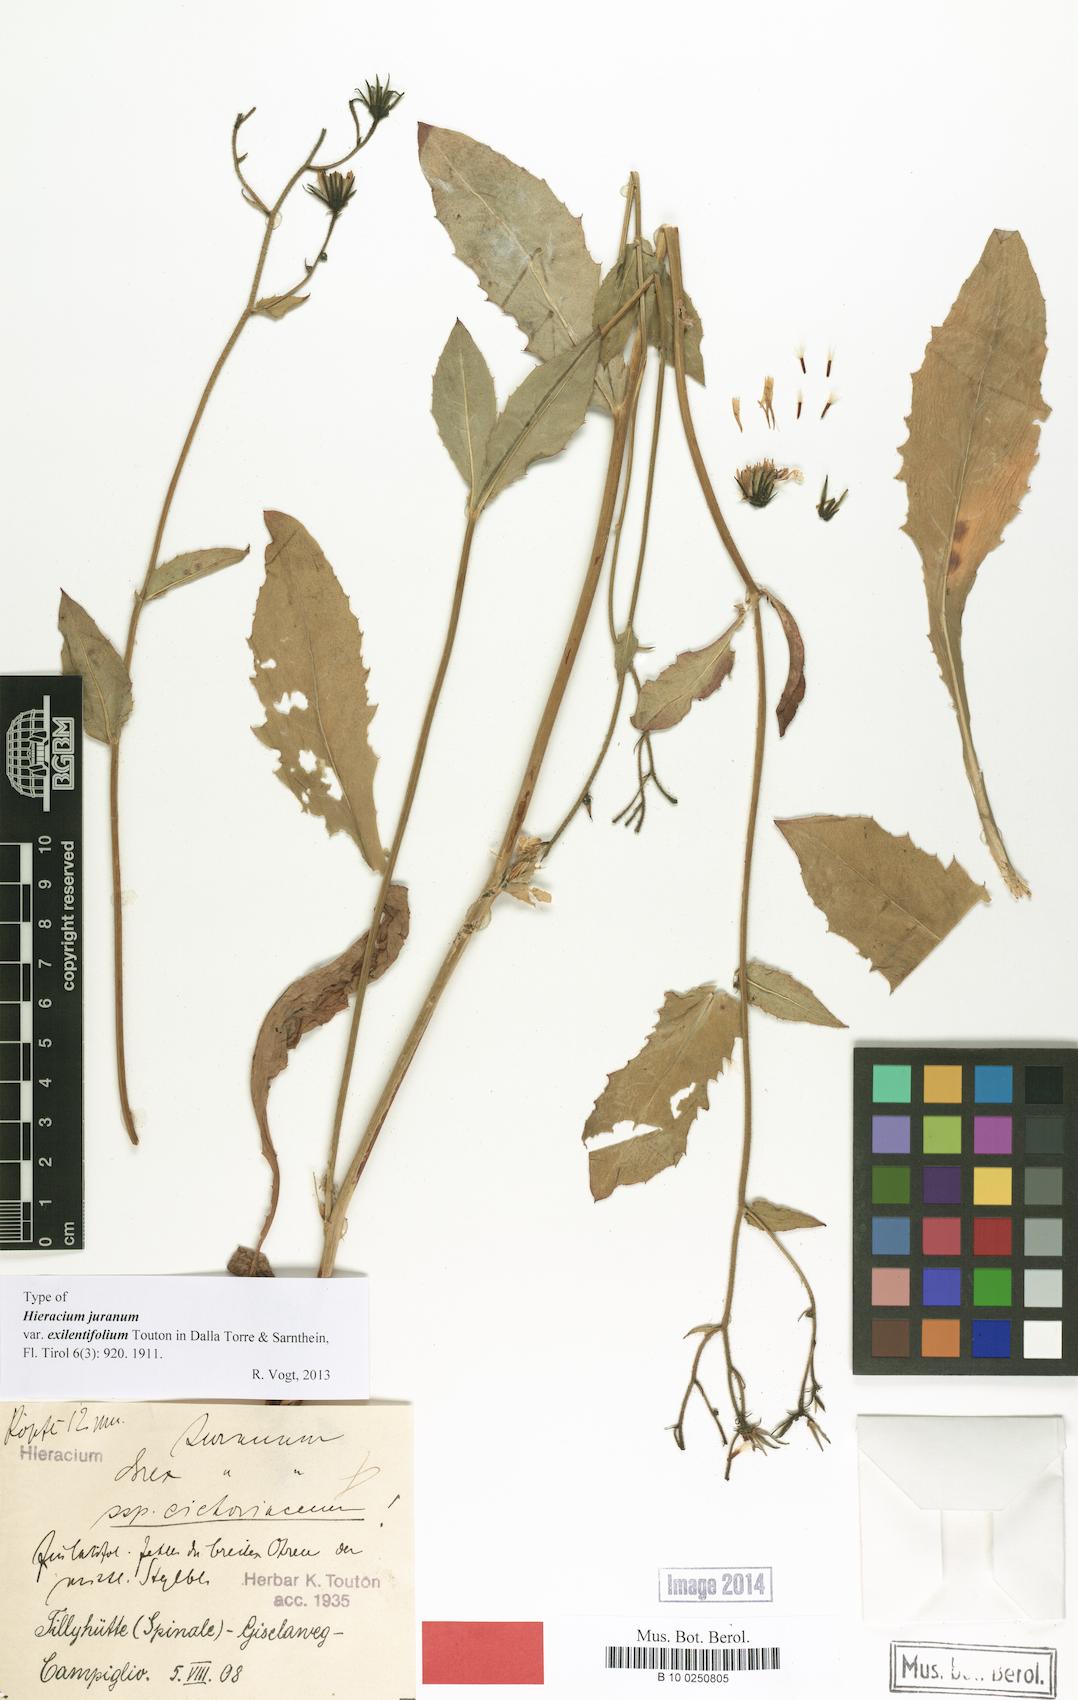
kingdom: Plantae
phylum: Tracheophyta
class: Magnoliopsida
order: Asterales
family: Asteraceae
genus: Hieracium
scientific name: Hieracium juranum
